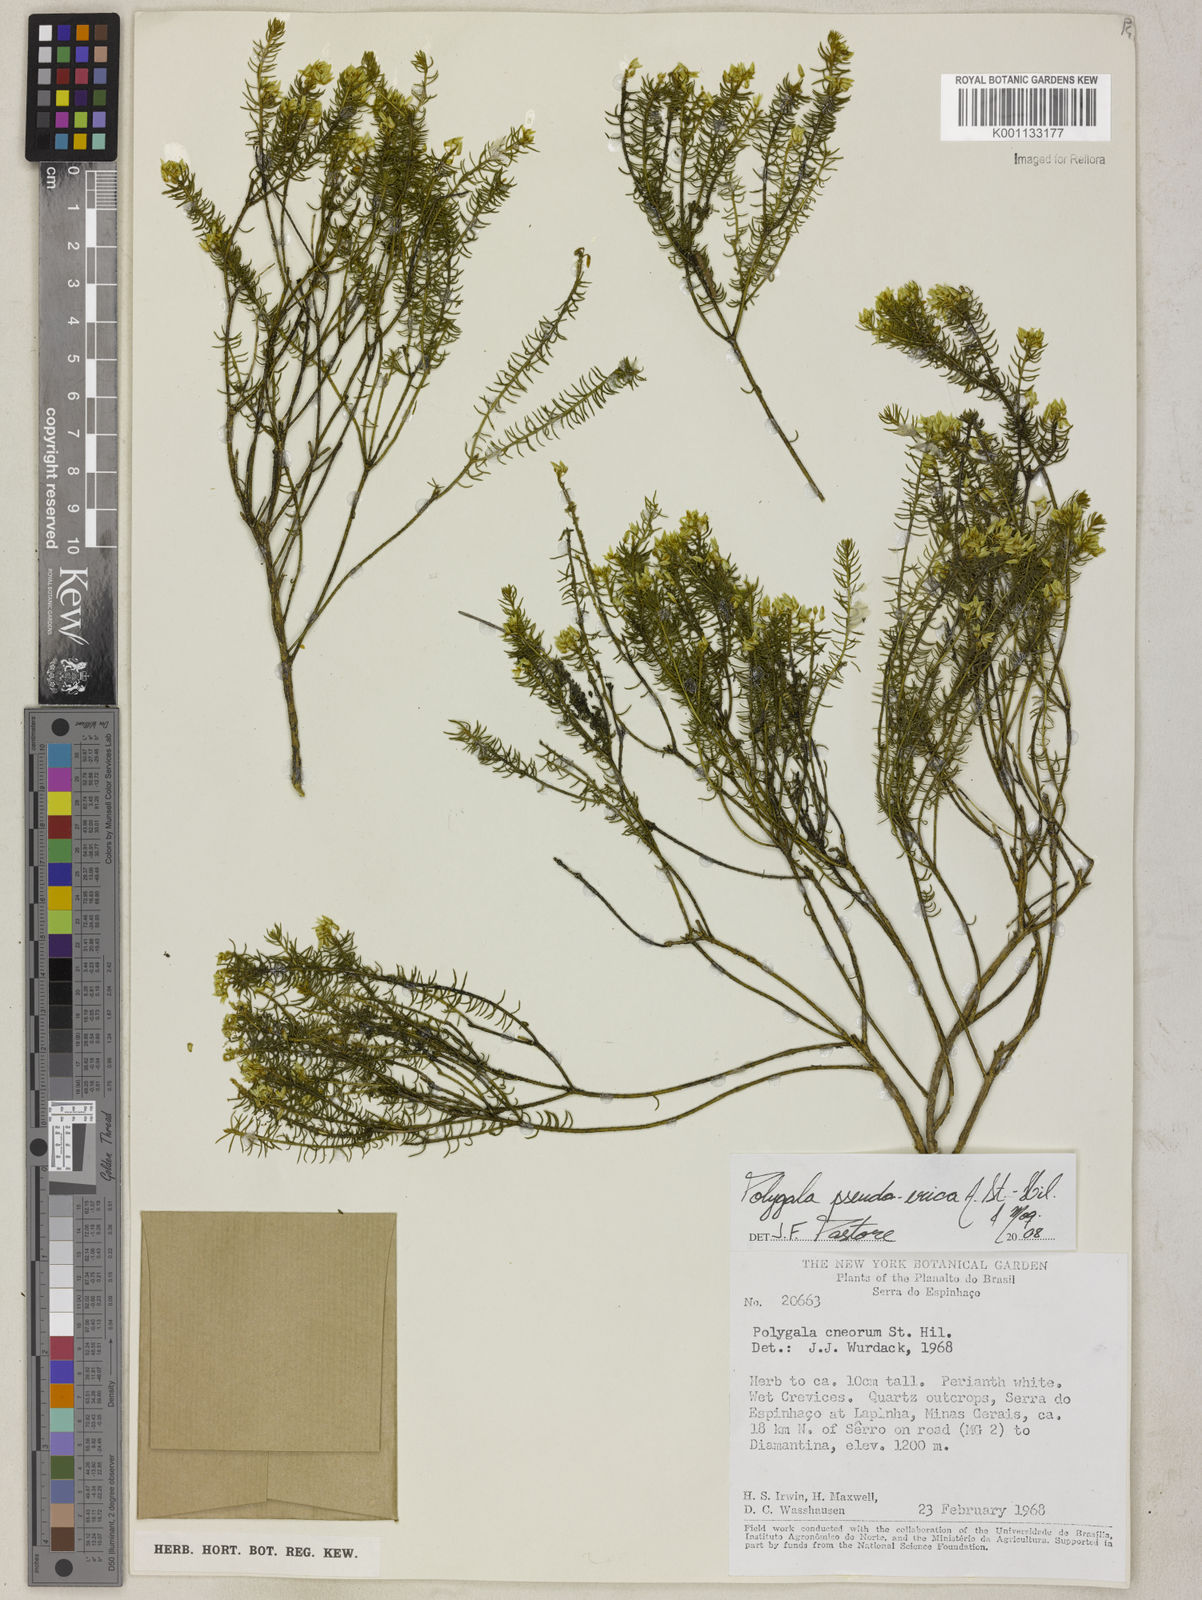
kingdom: Plantae
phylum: Tracheophyta
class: Magnoliopsida
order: Fabales
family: Polygalaceae
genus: Polygala
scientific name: Polygala pseudoerica
